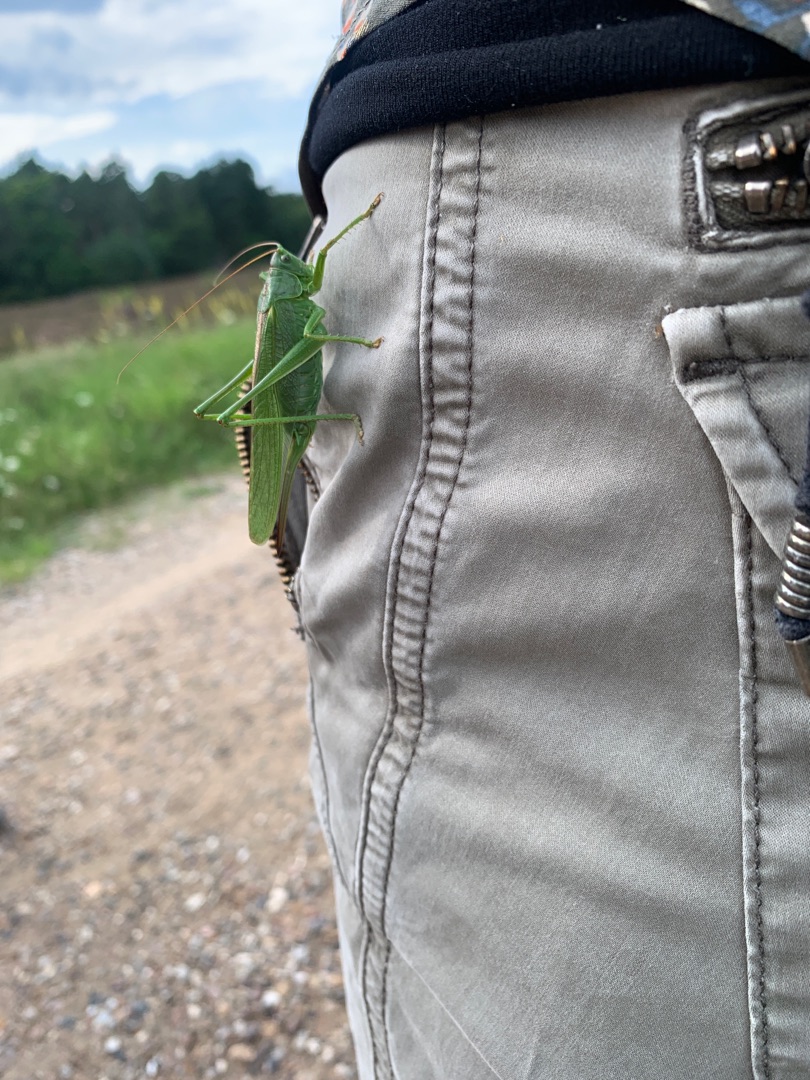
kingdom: Animalia
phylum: Arthropoda
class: Insecta
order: Orthoptera
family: Tettigoniidae
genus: Tettigonia
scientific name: Tettigonia viridissima
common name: Stor grøn løvgræshoppe
